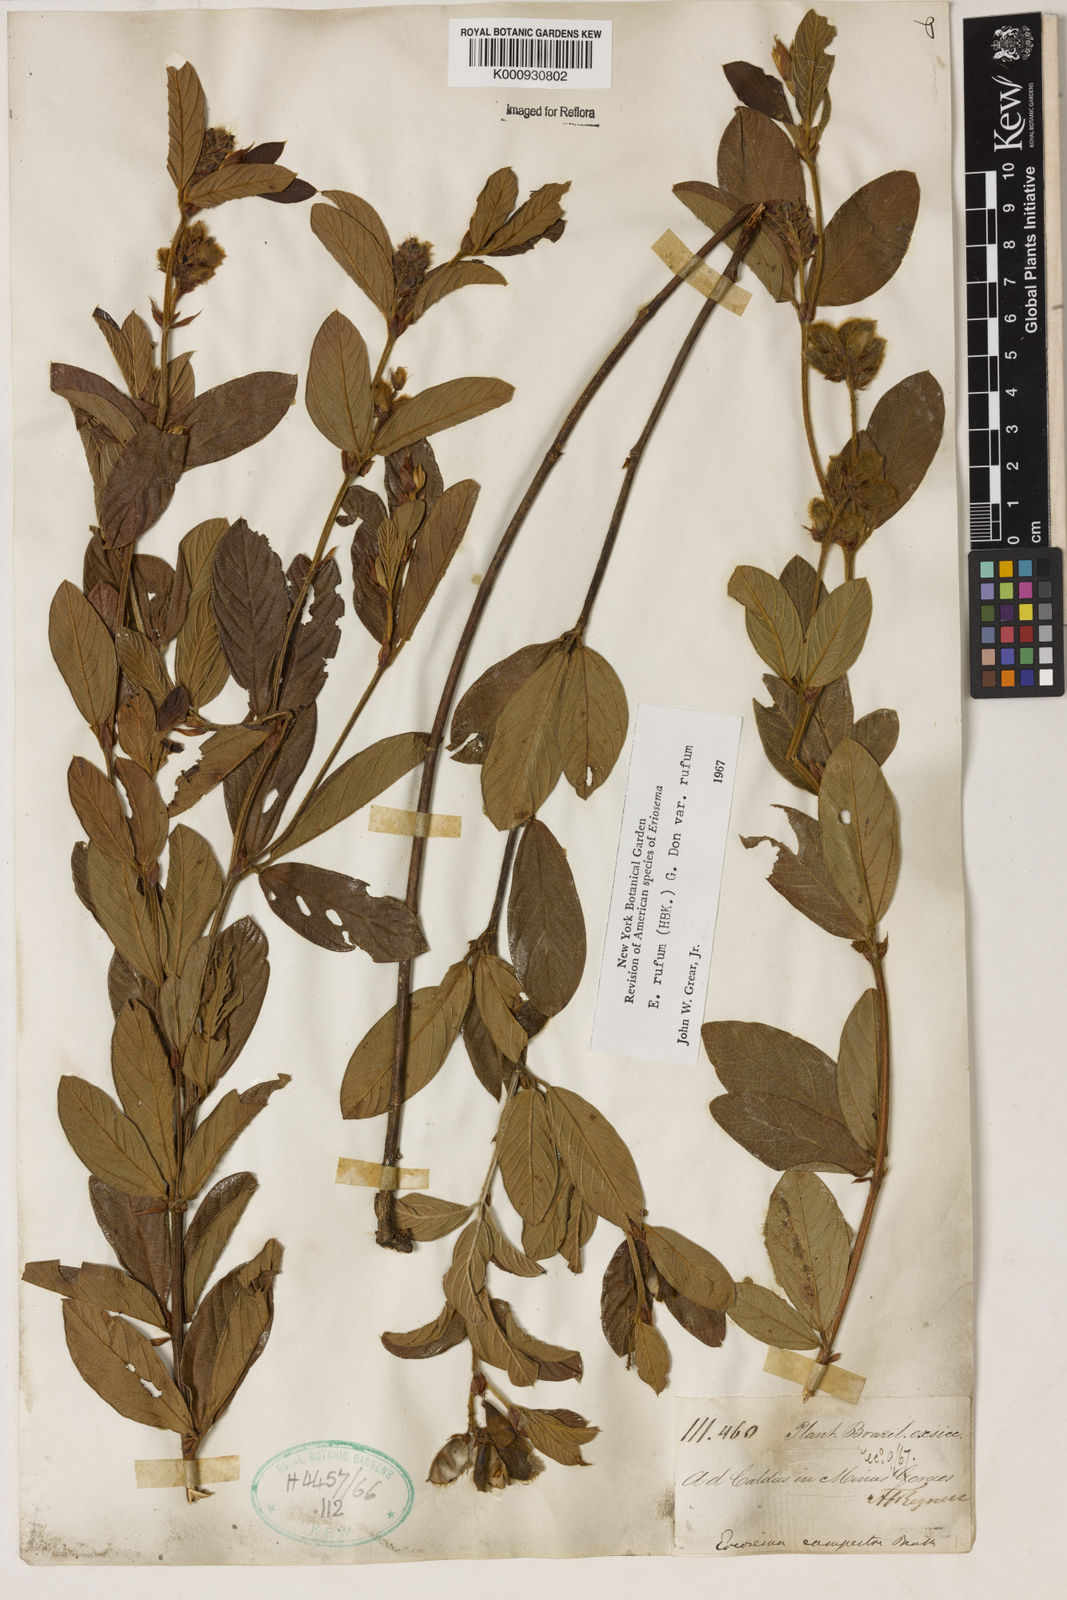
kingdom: Plantae
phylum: Tracheophyta
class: Magnoliopsida
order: Fabales
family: Fabaceae
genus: Eriosema
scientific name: Eriosema rufum
